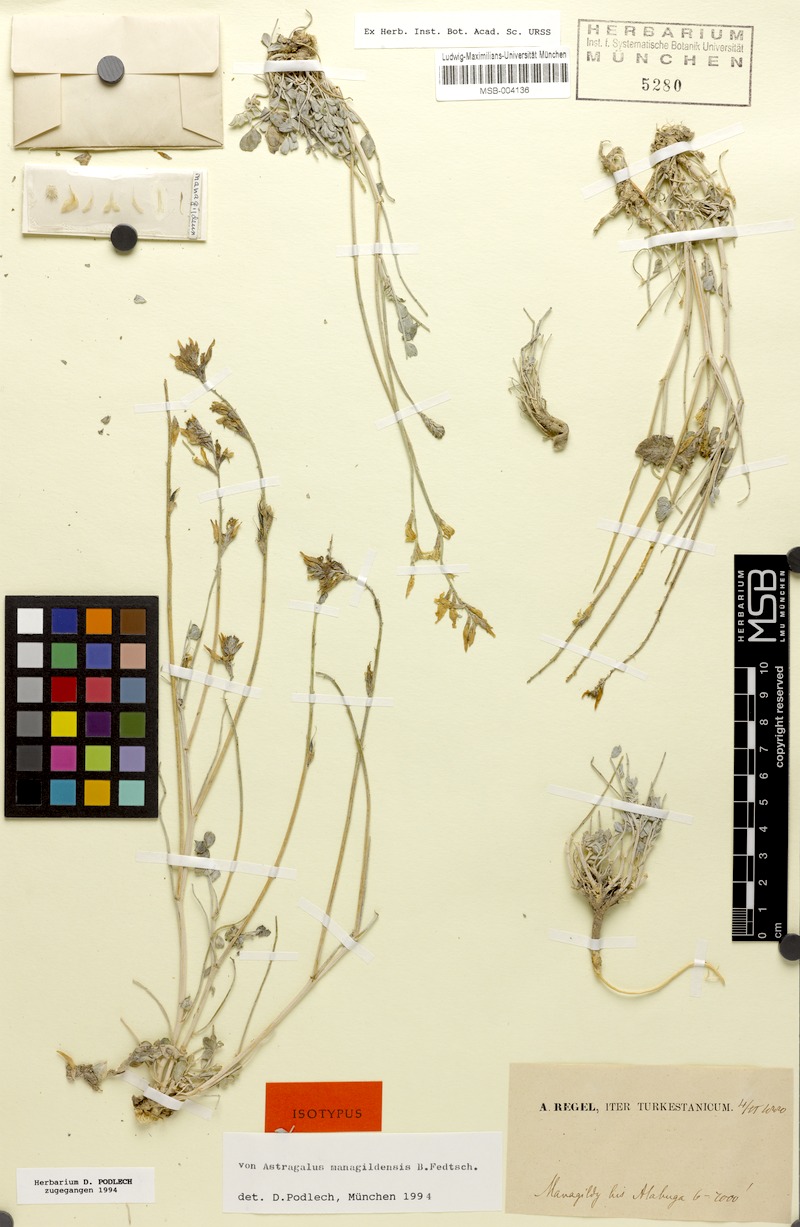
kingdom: Plantae
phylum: Tracheophyta
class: Magnoliopsida
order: Fabales
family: Fabaceae
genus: Astragalus
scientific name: Astragalus managildensis
